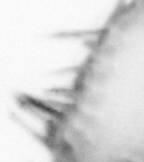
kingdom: Animalia
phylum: Annelida
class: Polychaeta
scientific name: Polychaeta
